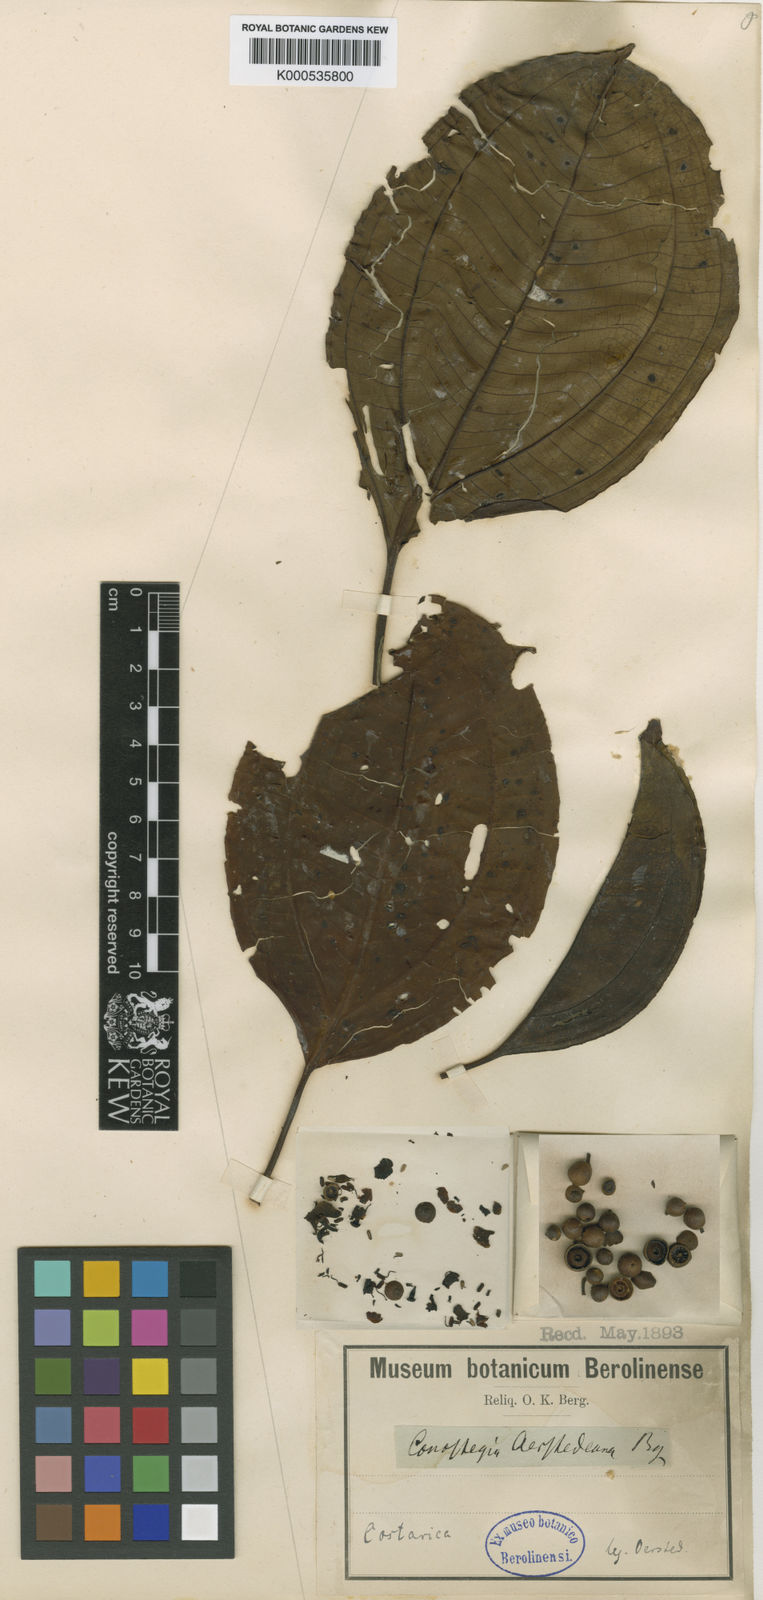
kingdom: Plantae
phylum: Tracheophyta
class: Magnoliopsida
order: Myrtales
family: Melastomataceae
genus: Miconia
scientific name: Miconia oerstediana
